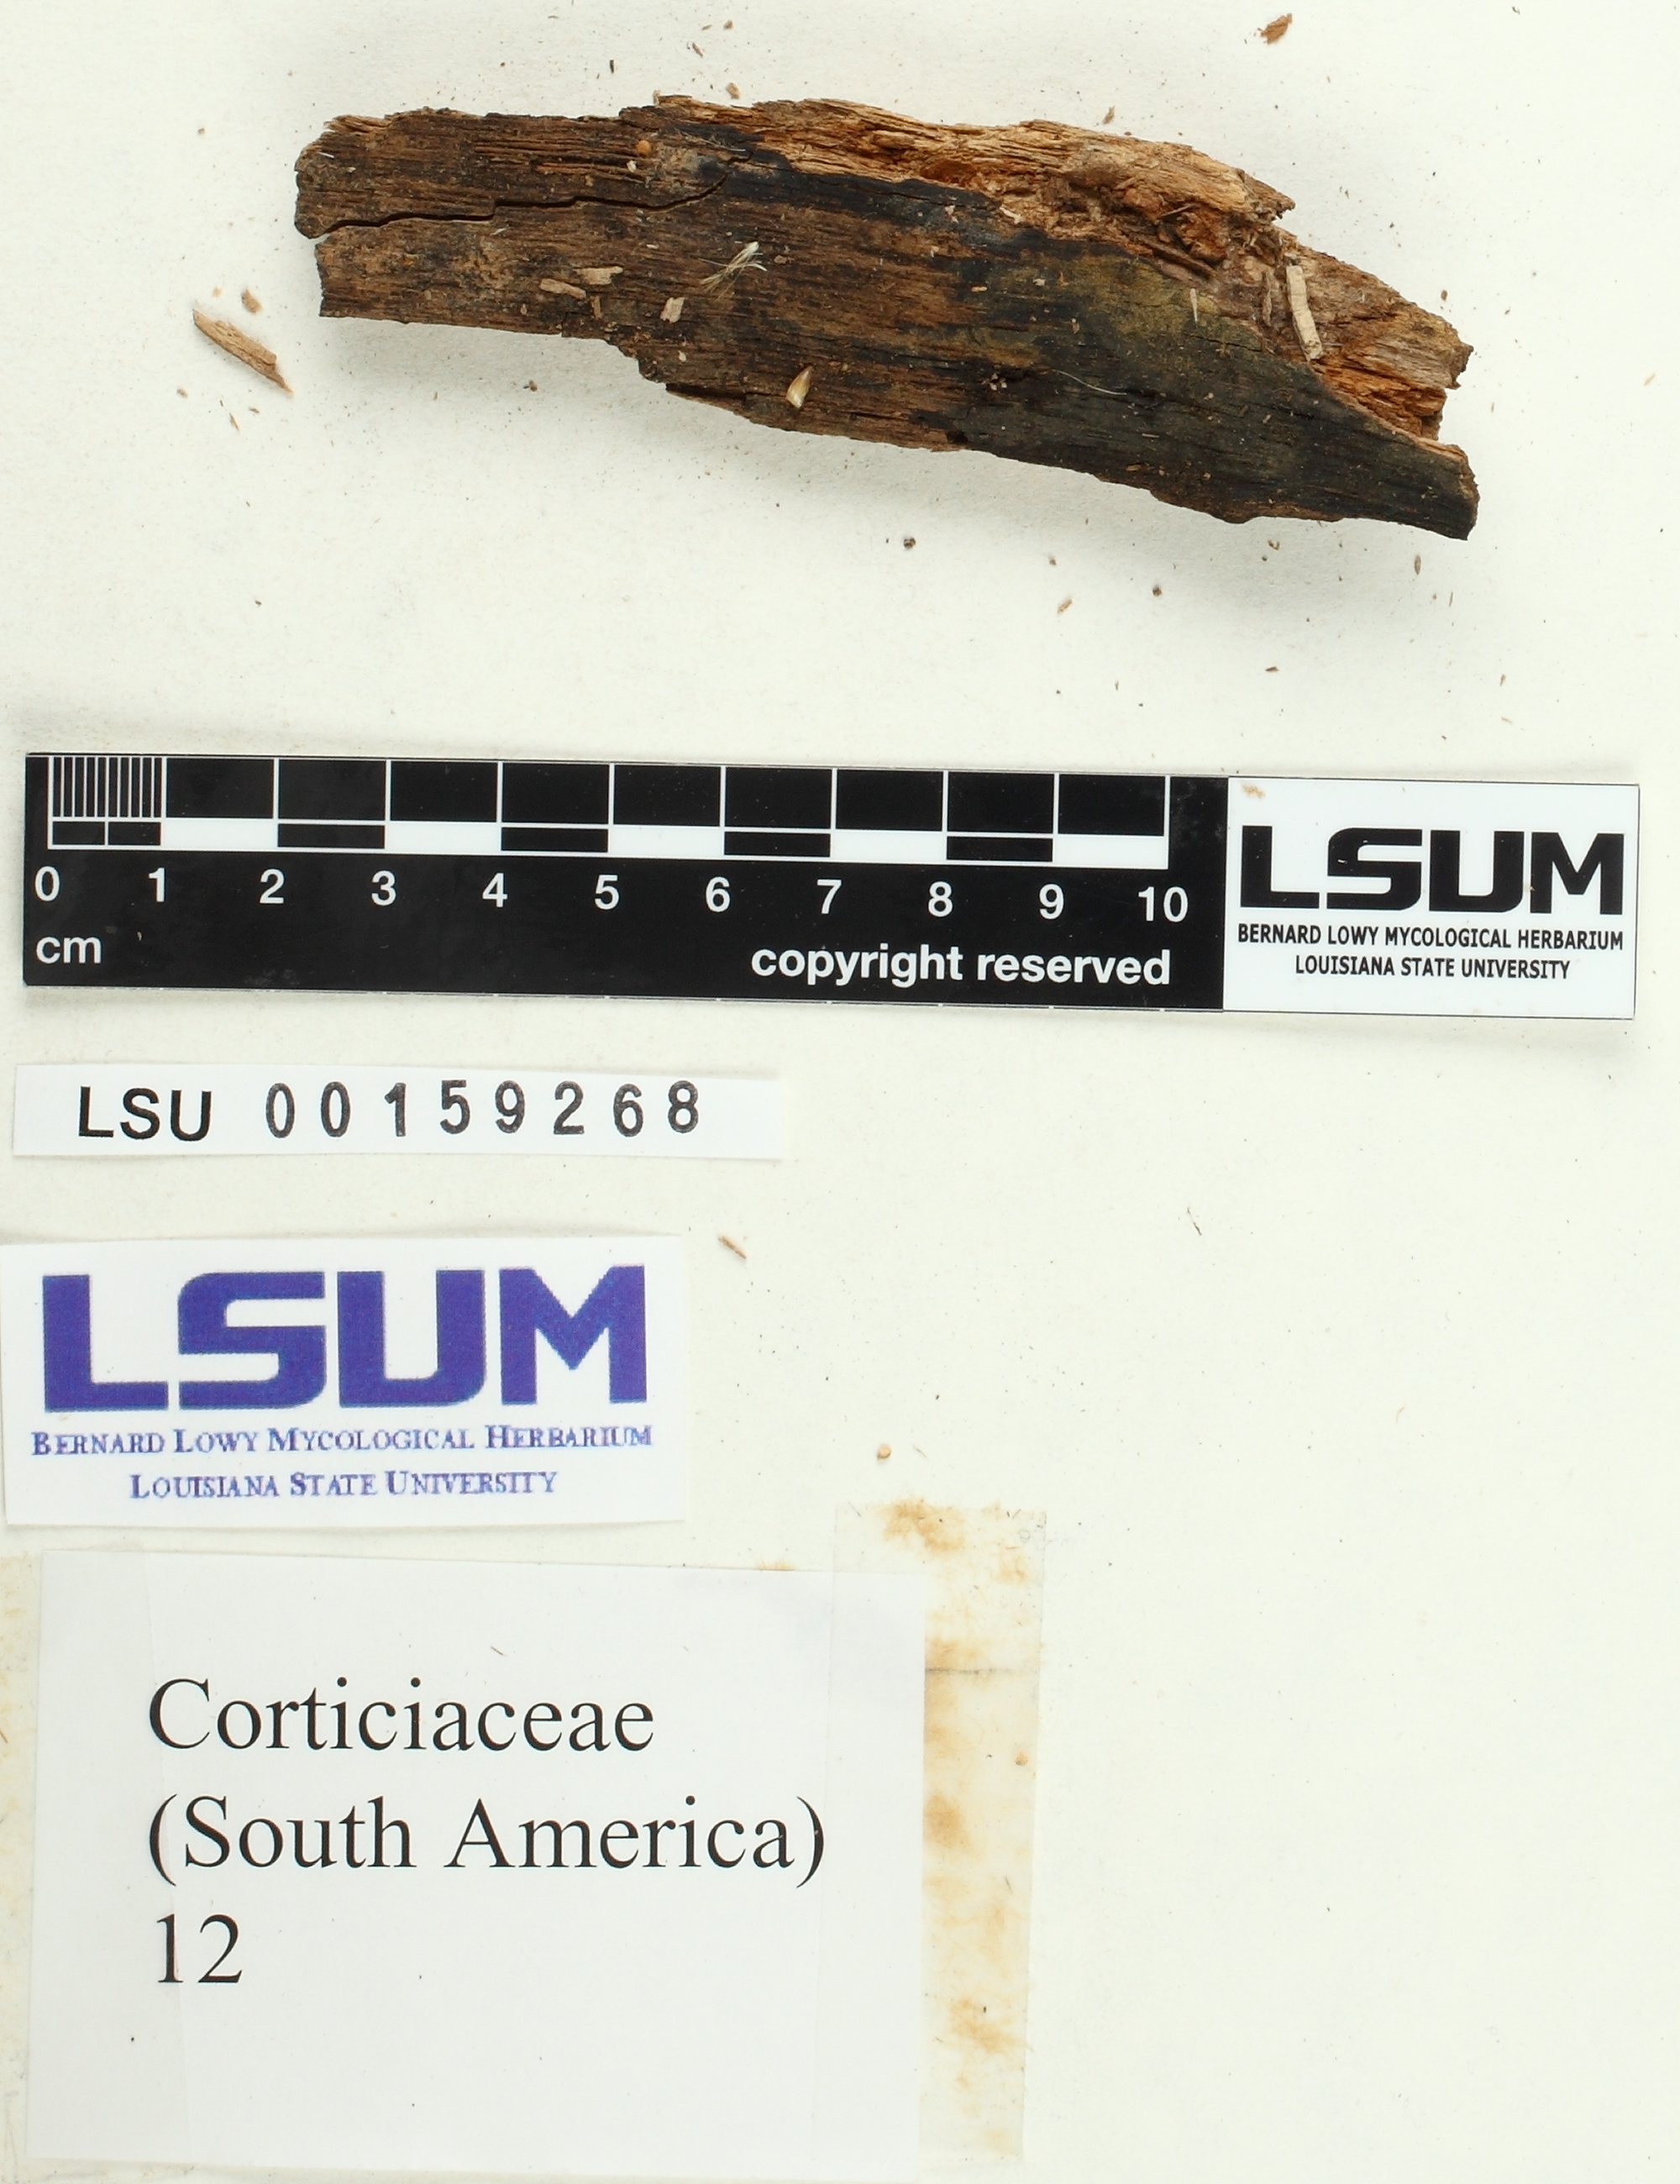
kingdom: Fungi
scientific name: Fungi
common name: Fungi
